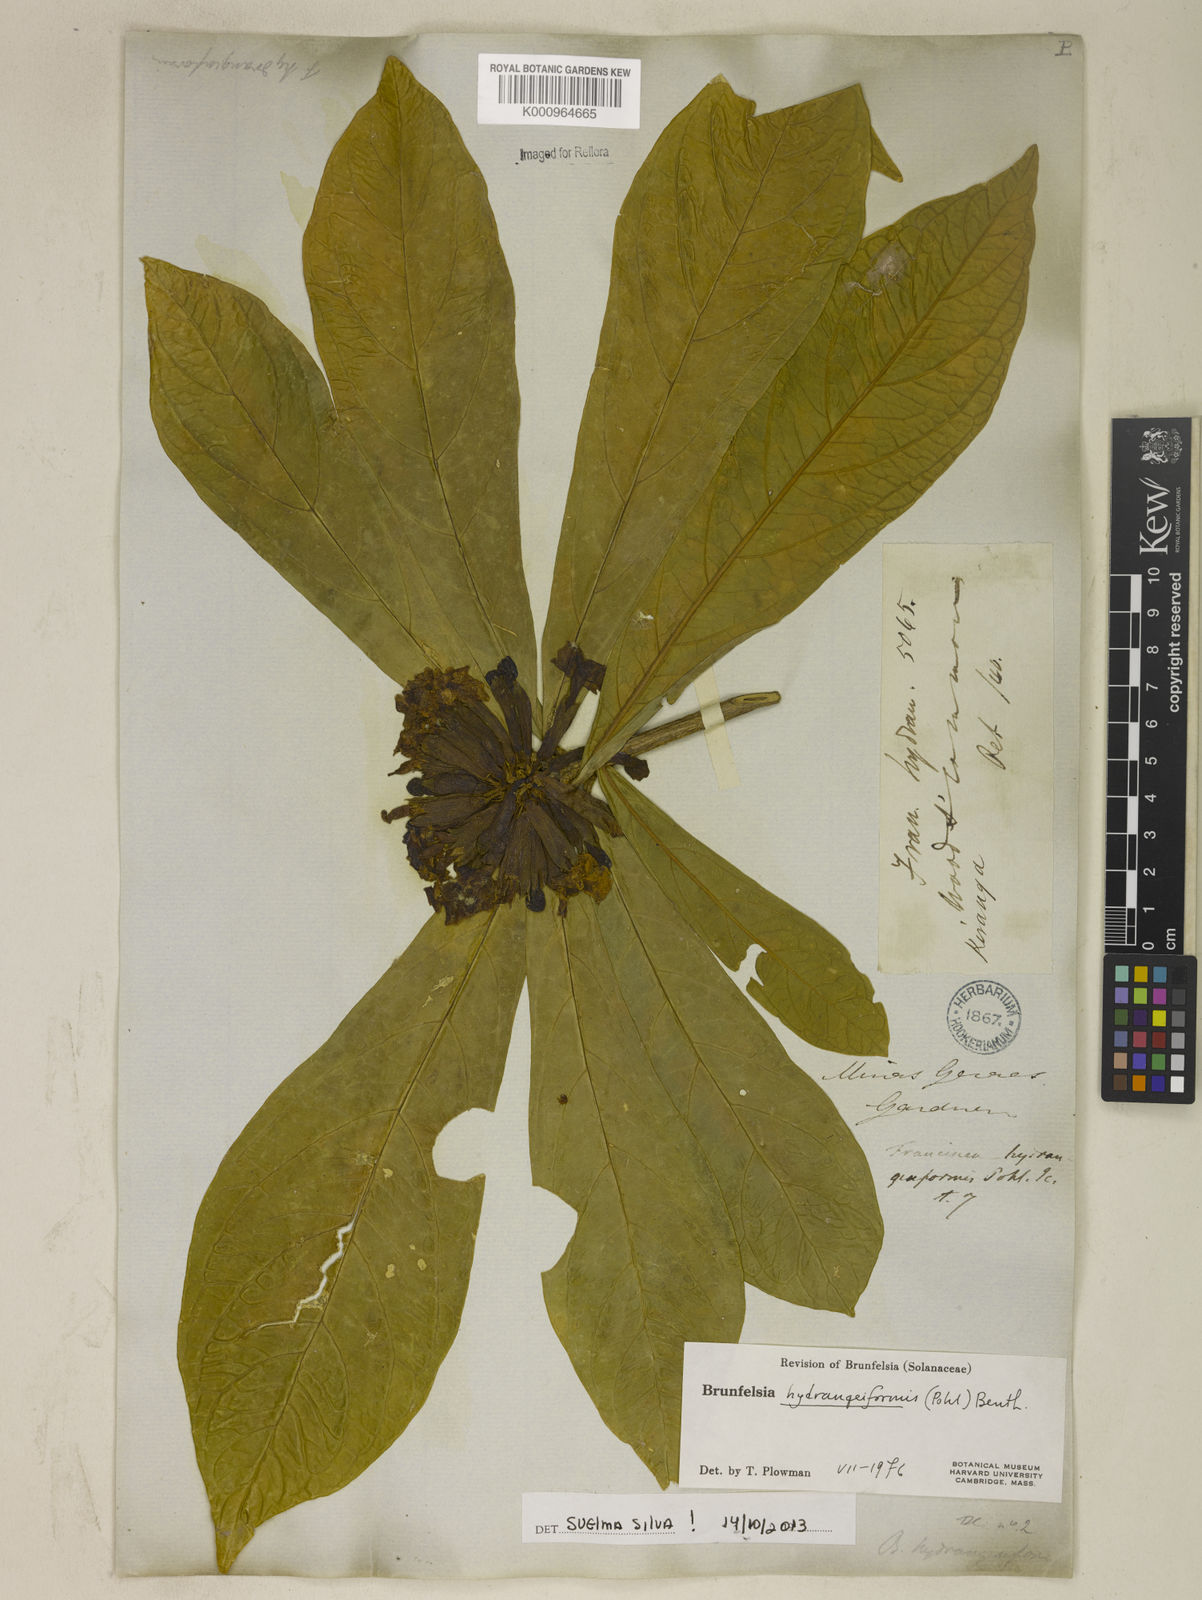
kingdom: Plantae
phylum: Tracheophyta
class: Magnoliopsida
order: Solanales
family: Solanaceae
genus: Brunfelsia
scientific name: Brunfelsia hydrangeiformis
